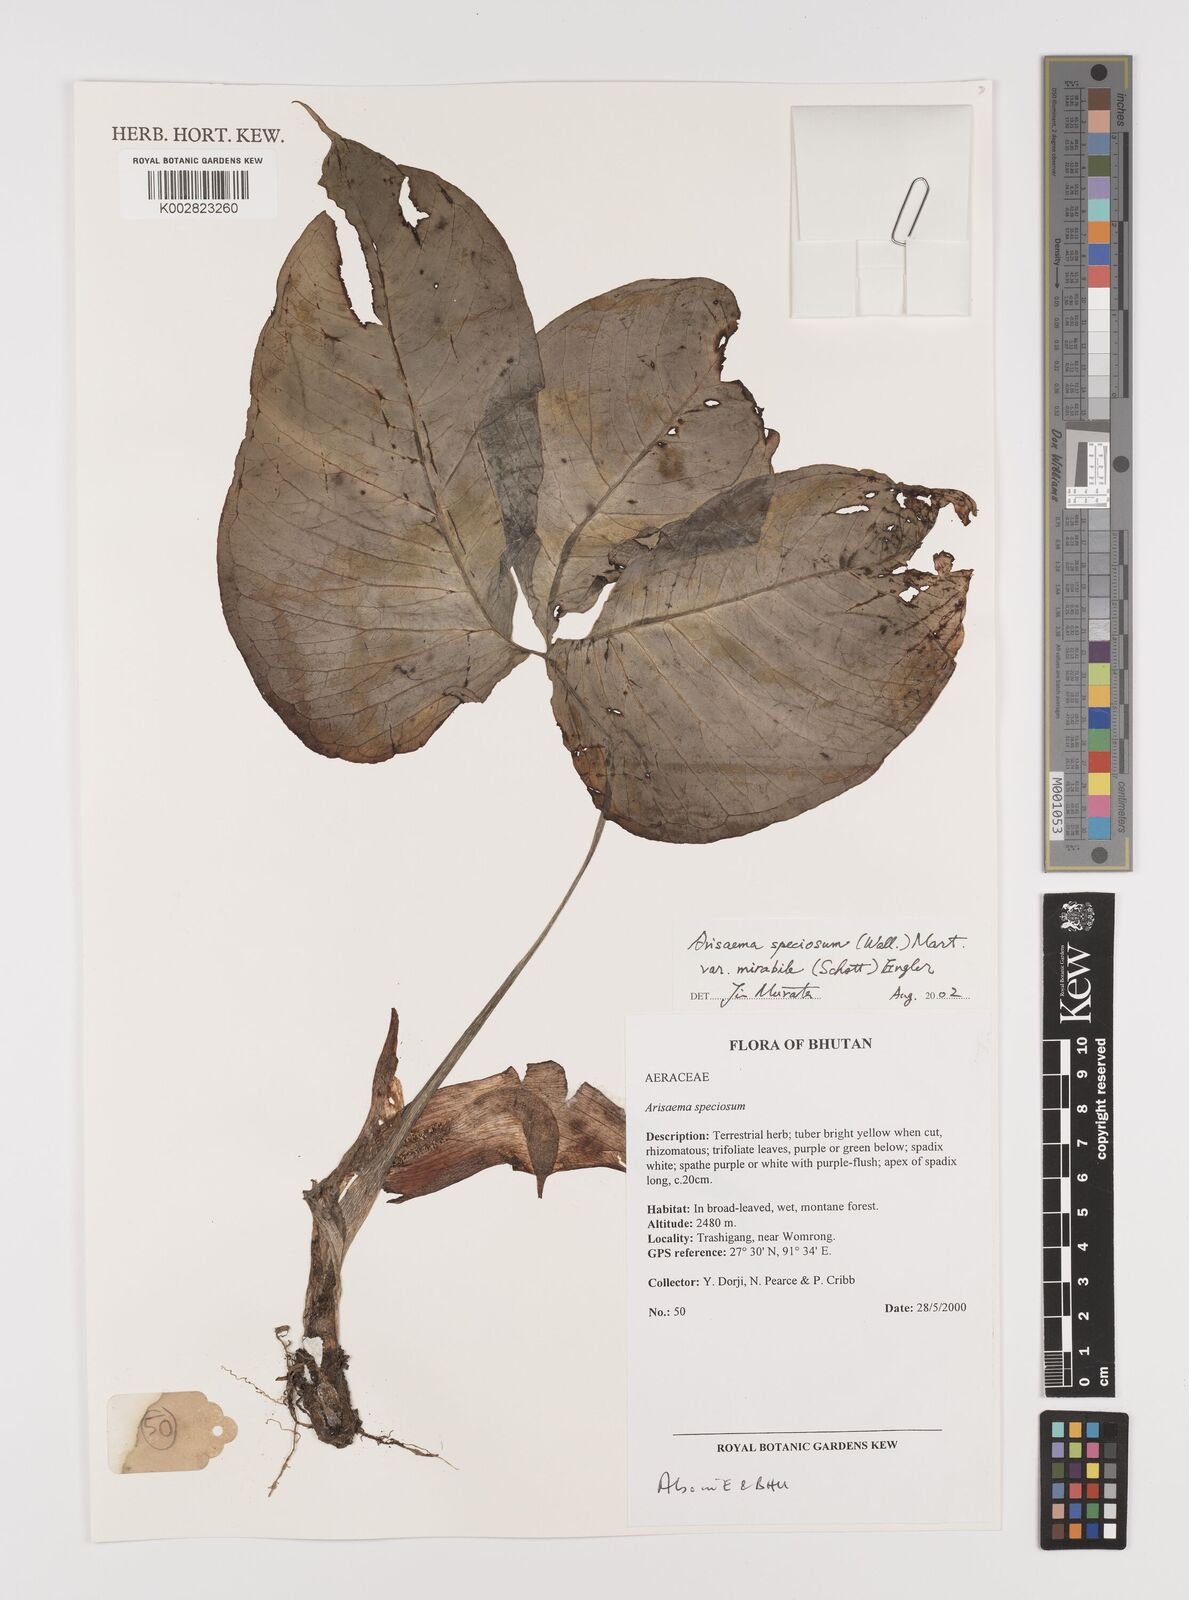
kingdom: Plantae
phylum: Tracheophyta
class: Liliopsida
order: Alismatales
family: Araceae
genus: Arisaema
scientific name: Arisaema speciosum
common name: Showy cobra-lily
